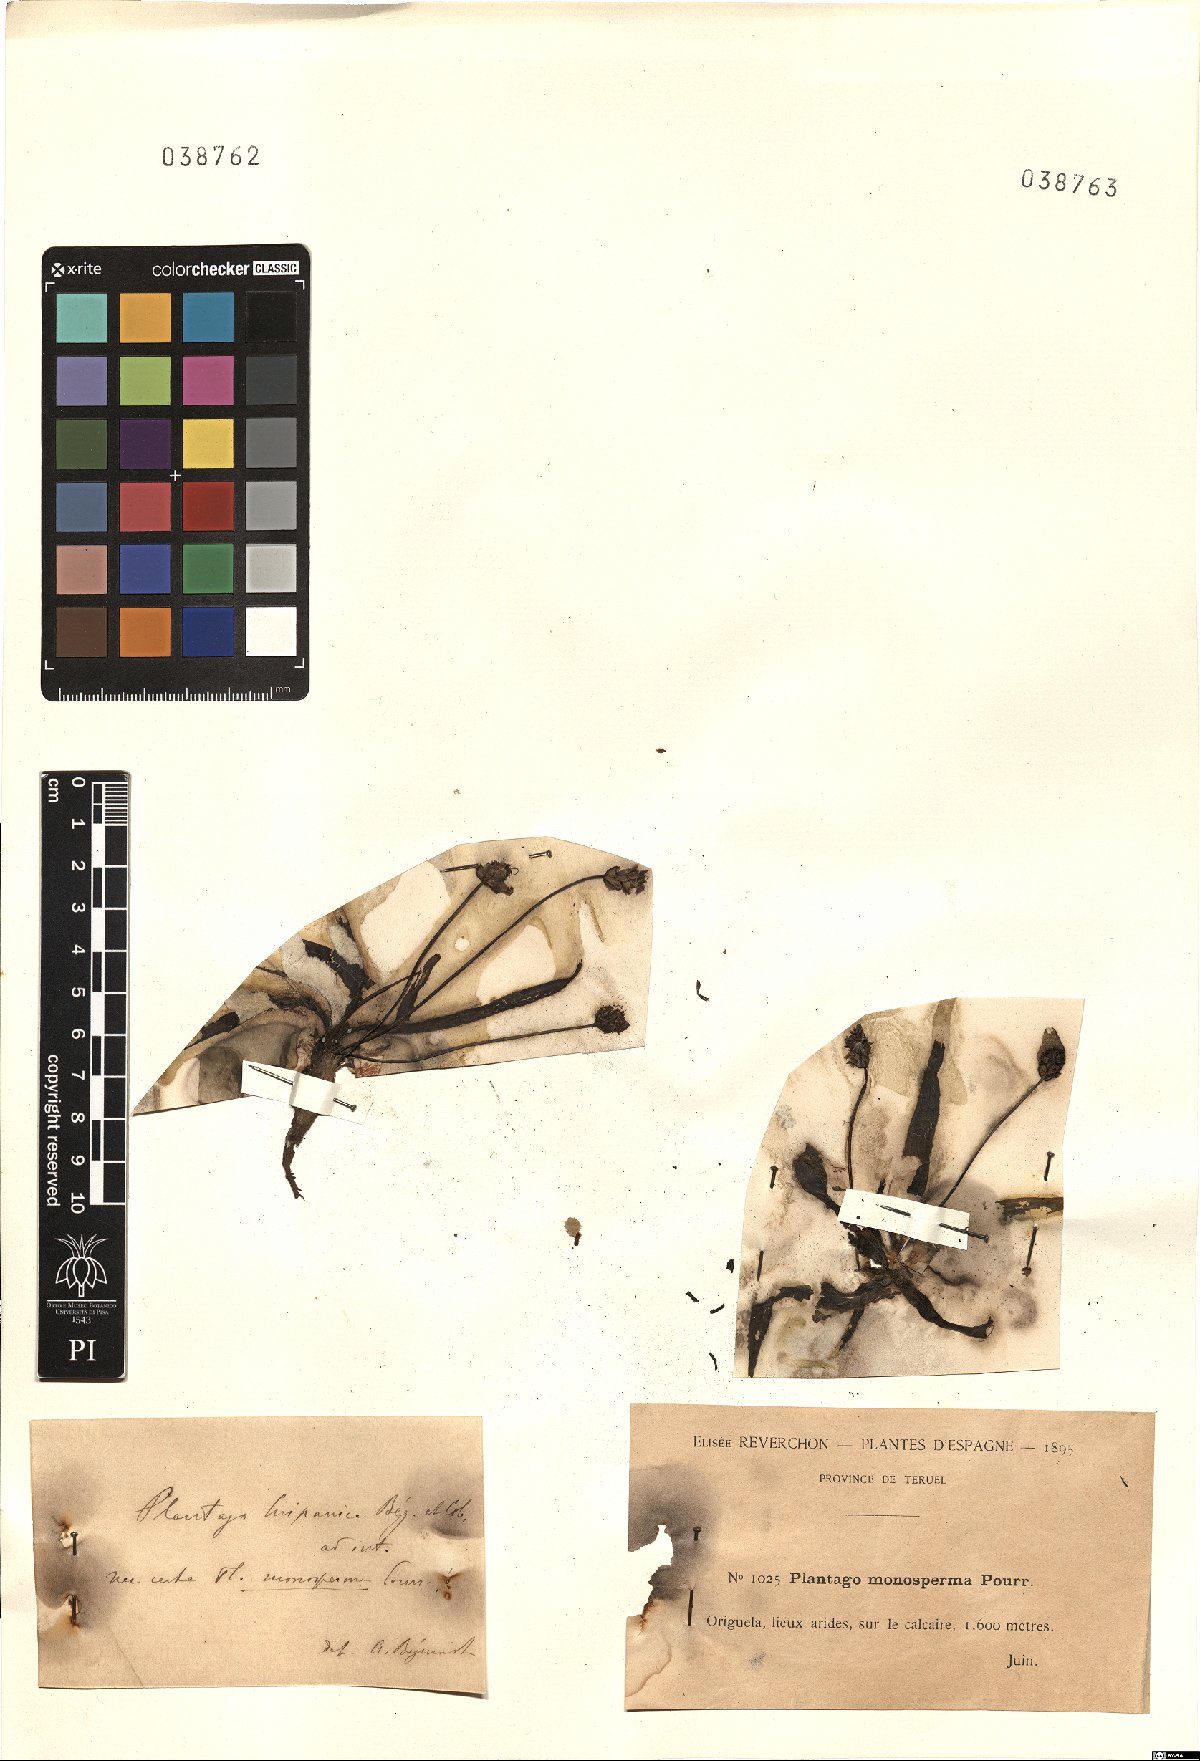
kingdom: Plantae
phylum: Tracheophyta
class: Magnoliopsida
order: Lamiales
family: Plantaginaceae
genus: Plantago
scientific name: Plantago monosperma
